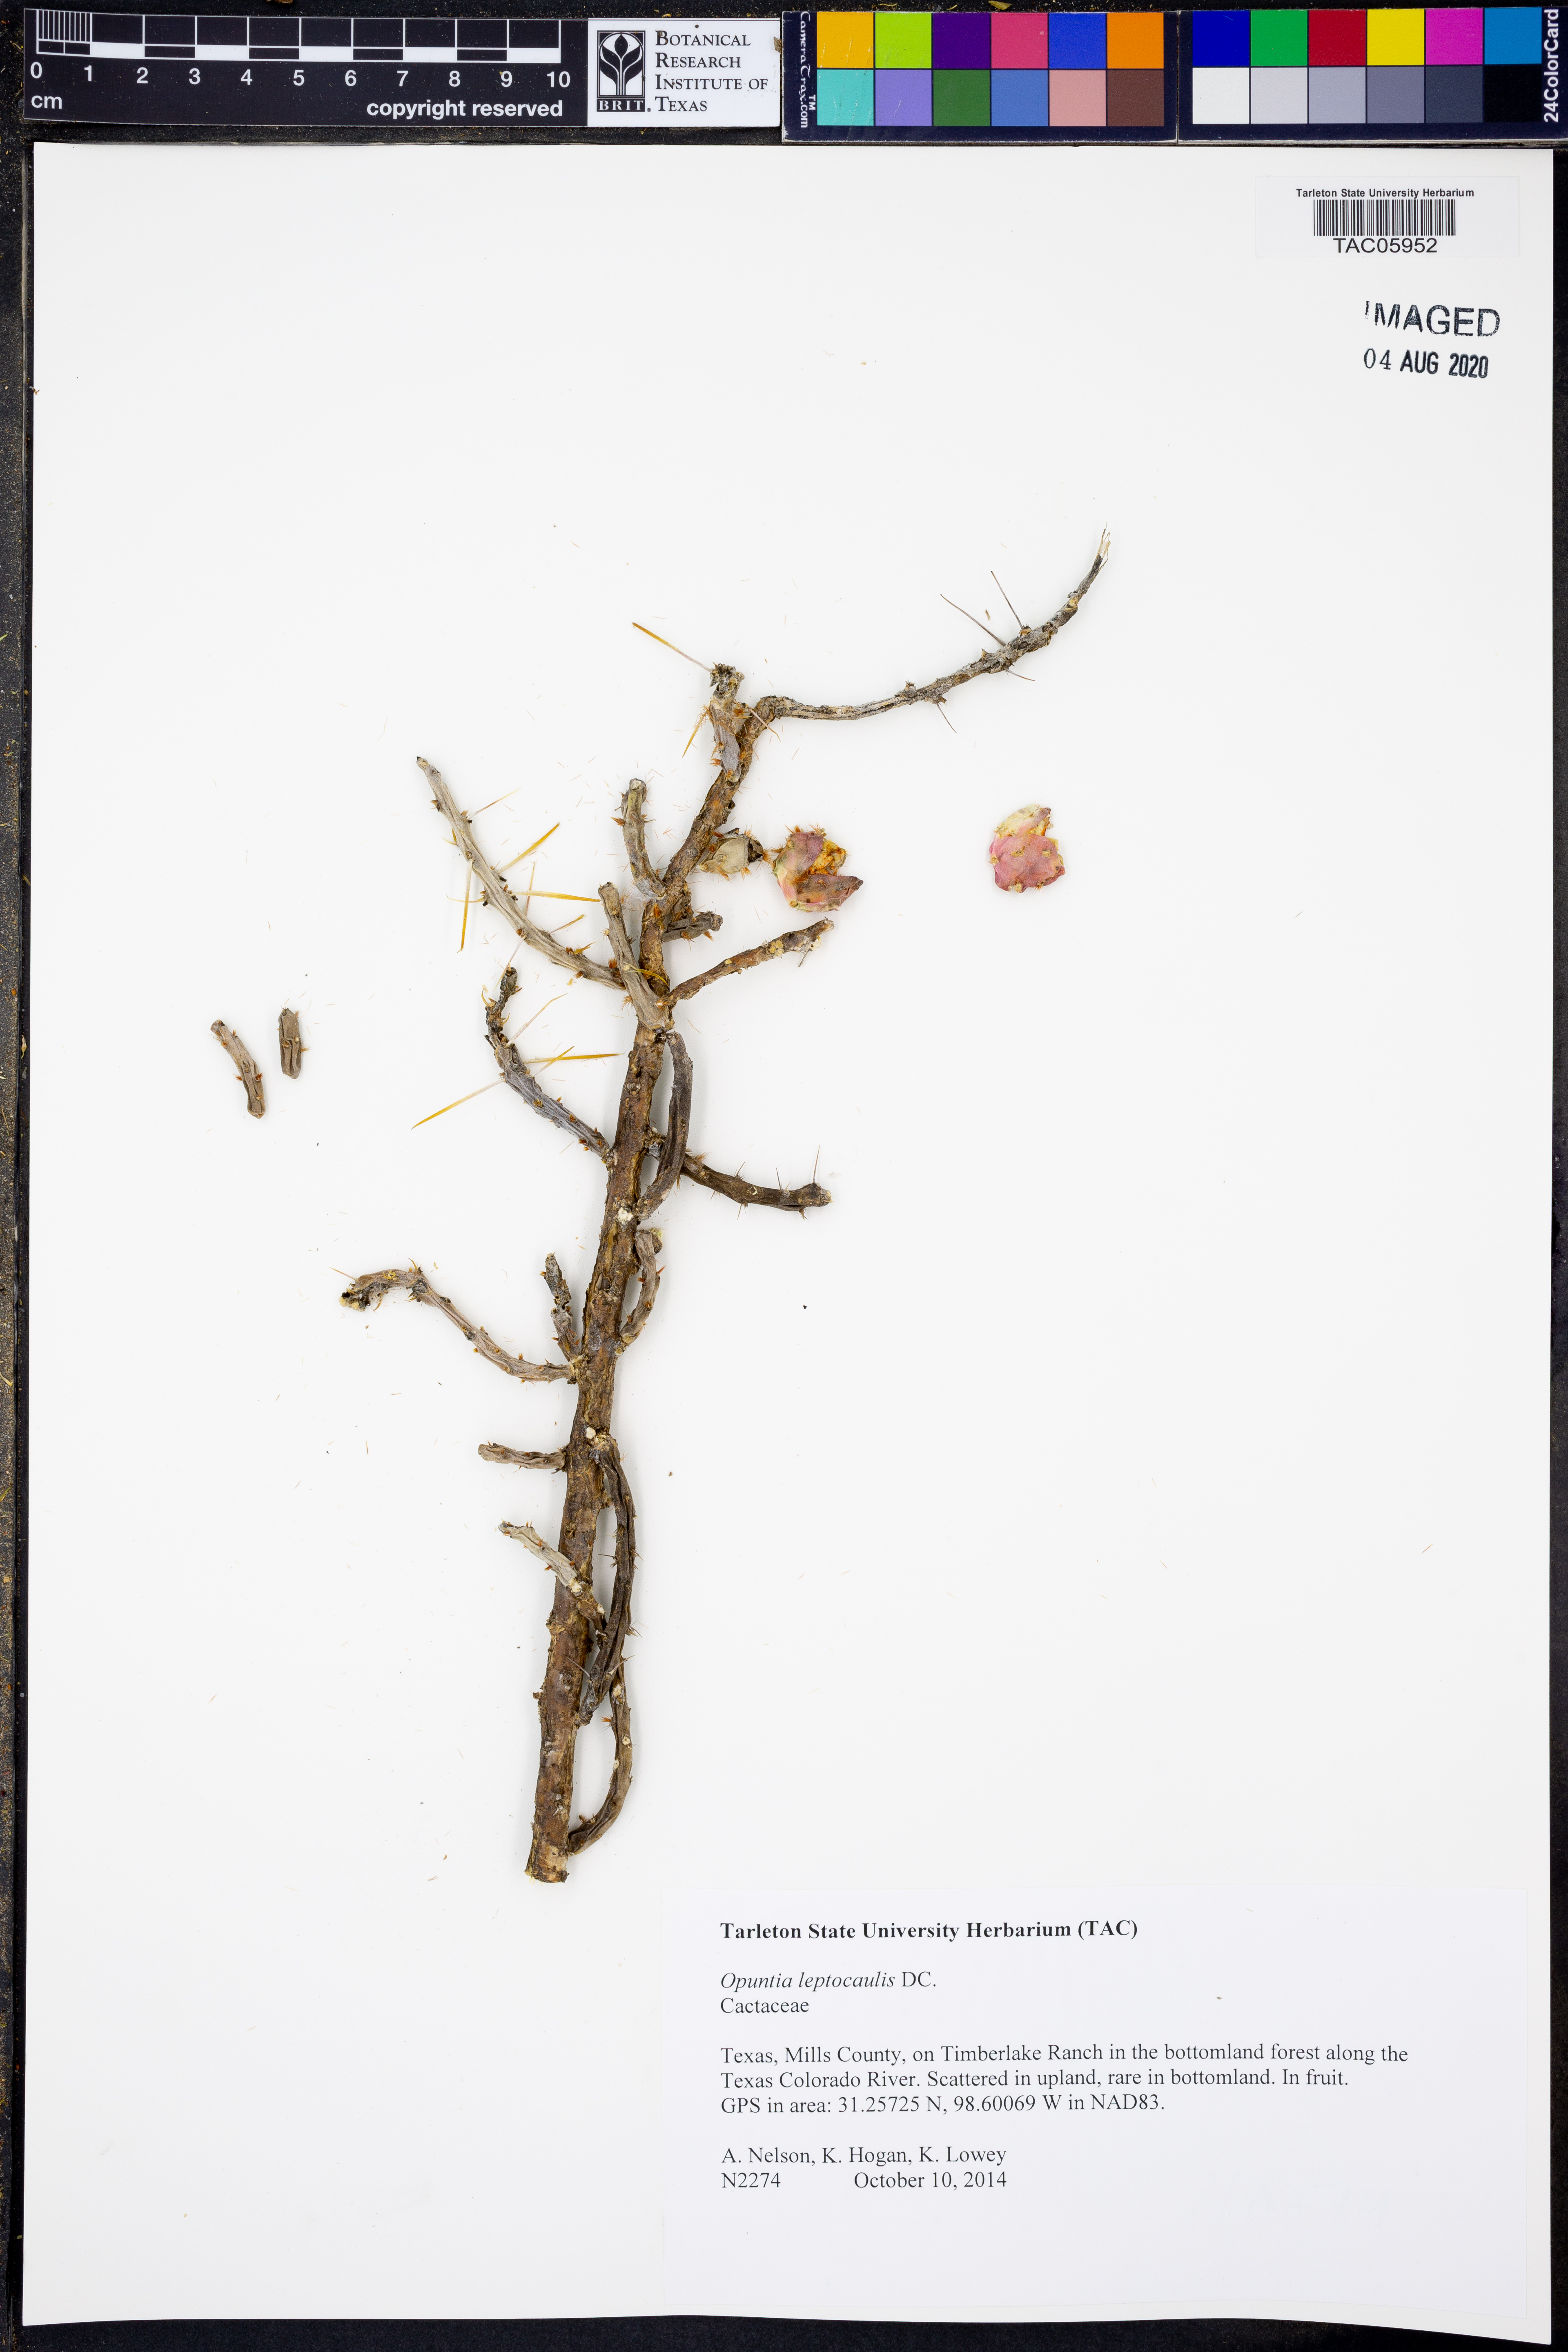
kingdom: Plantae
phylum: Tracheophyta
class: Magnoliopsida
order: Caryophyllales
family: Cactaceae
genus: Cylindropuntia
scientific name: Cylindropuntia leptocaulis
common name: Christmas cactus
